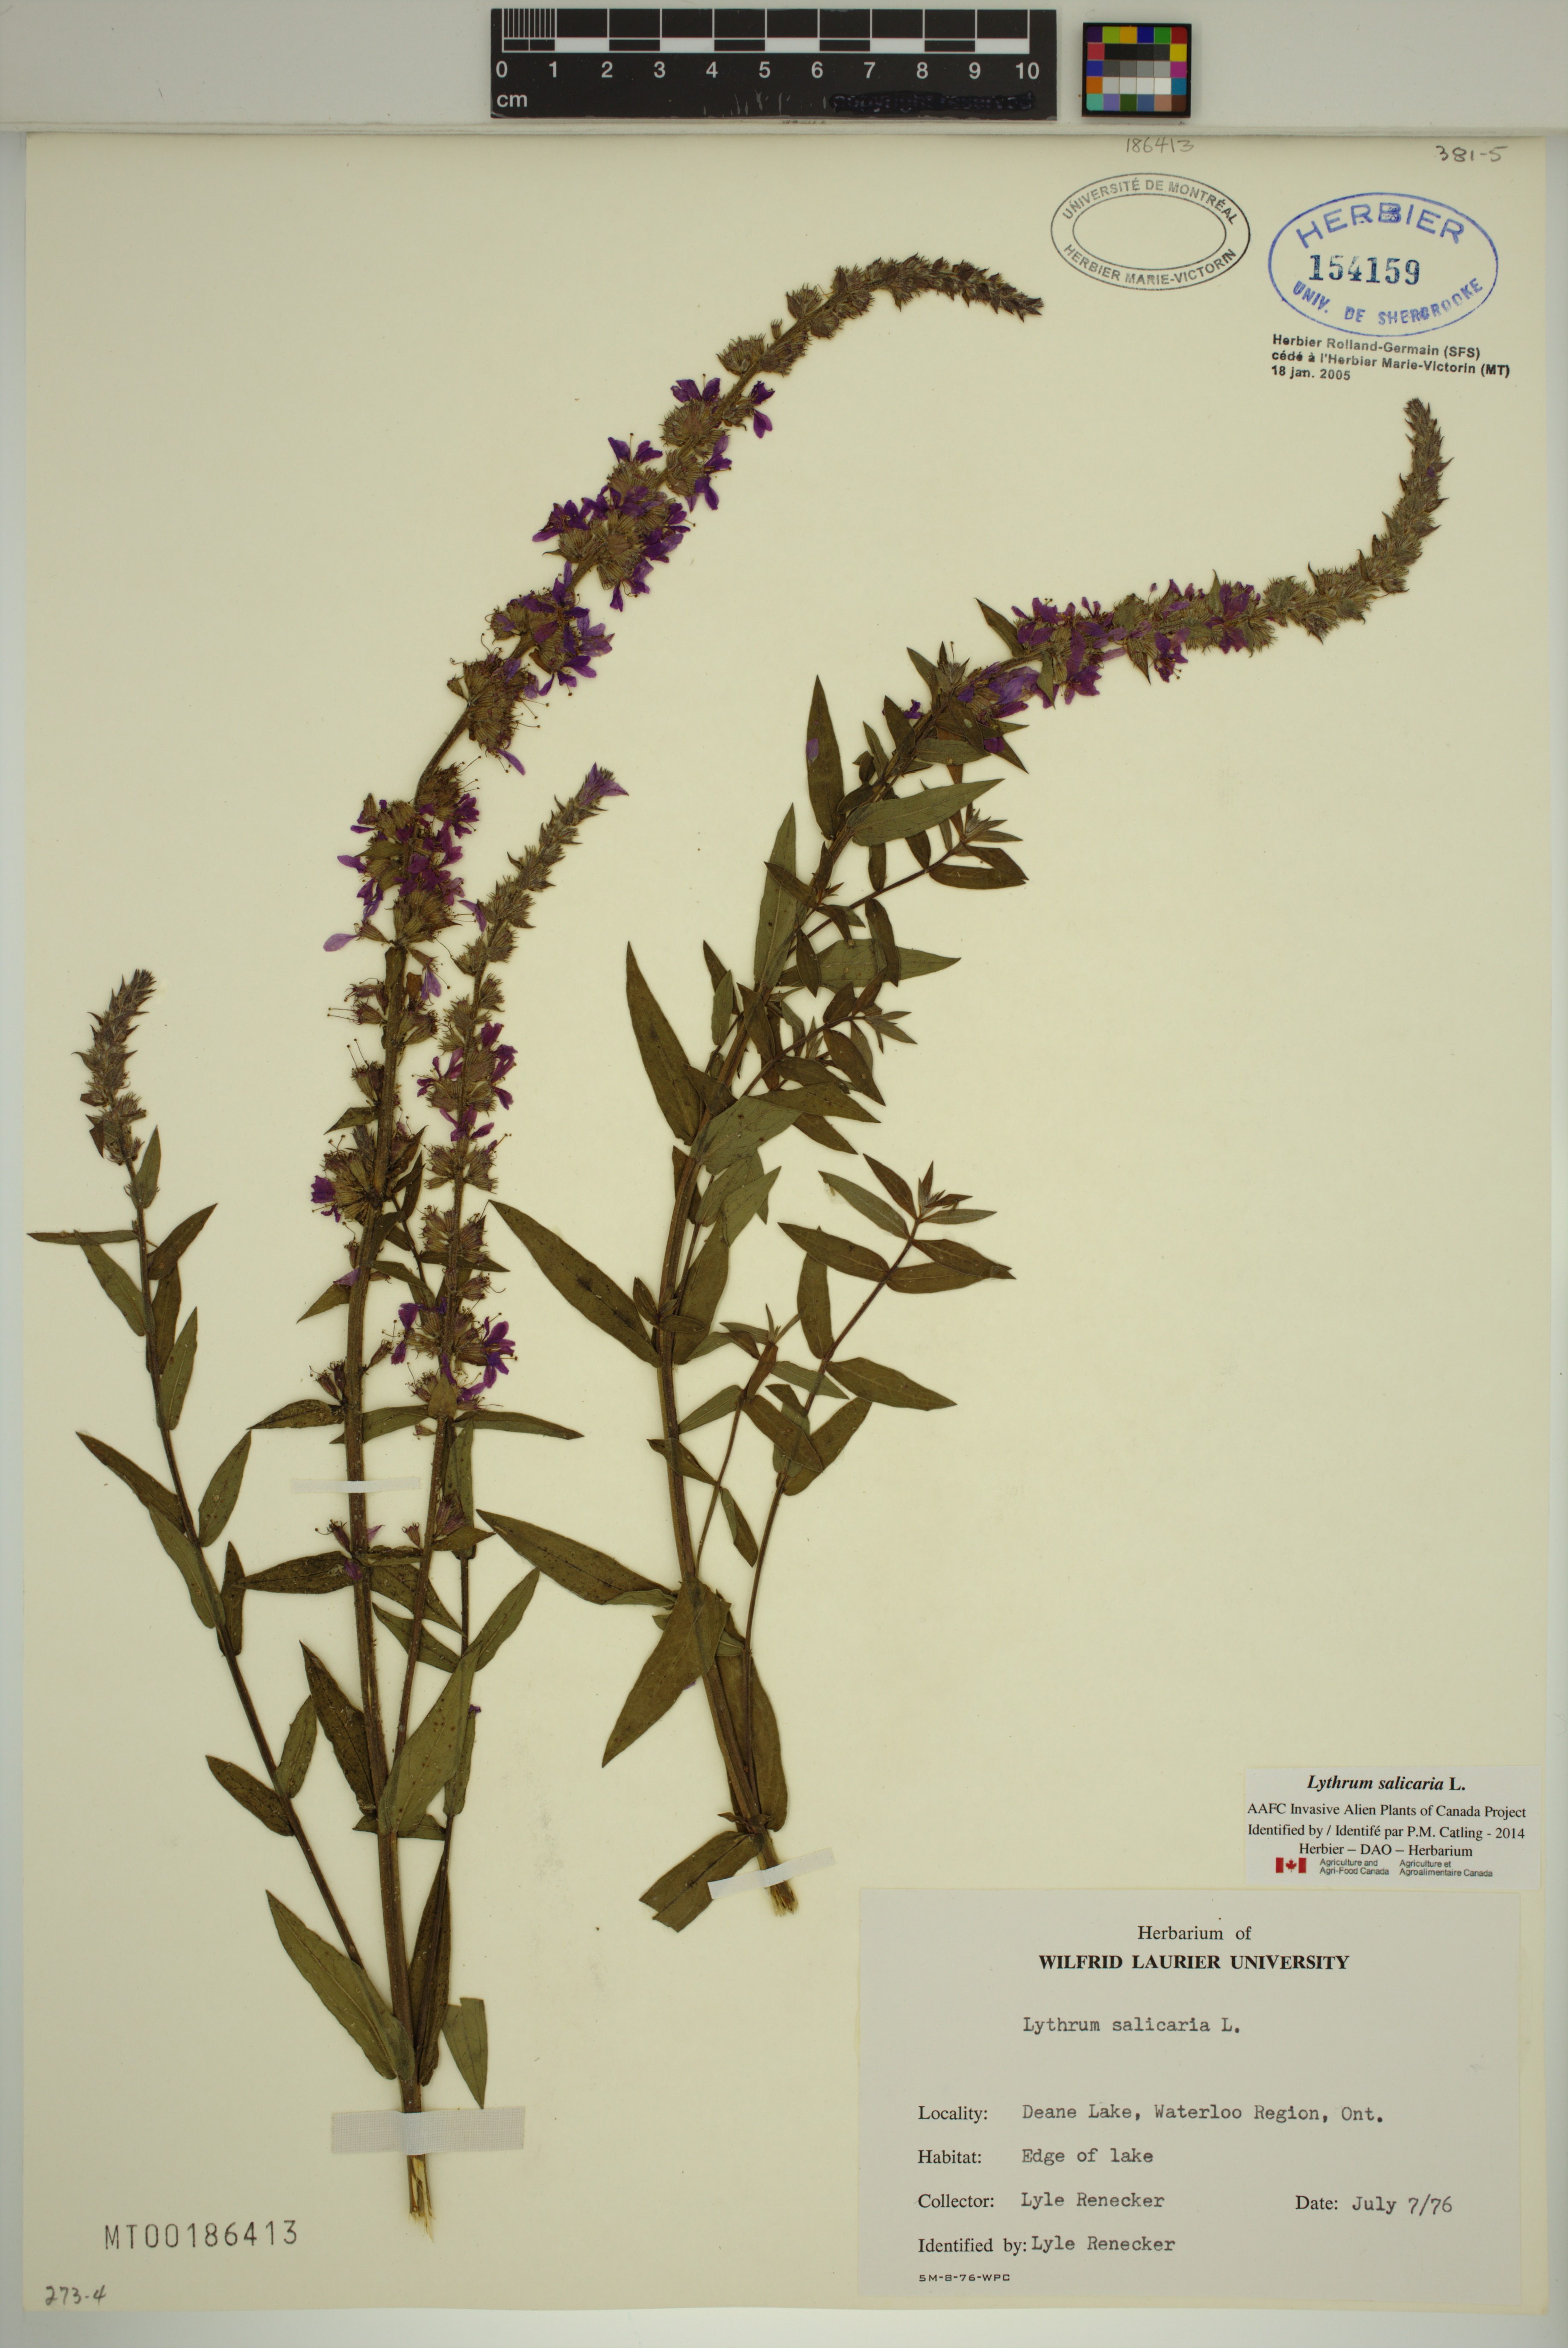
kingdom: Plantae
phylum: Tracheophyta
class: Magnoliopsida
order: Myrtales
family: Lythraceae
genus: Lythrum
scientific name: Lythrum salicaria
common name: Purple loosestrife
